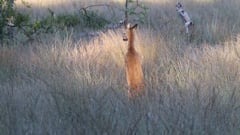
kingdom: Animalia
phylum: Chordata
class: Mammalia
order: Artiodactyla
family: Cervidae
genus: Capreolus
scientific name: Capreolus capreolus
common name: Western roe deer
